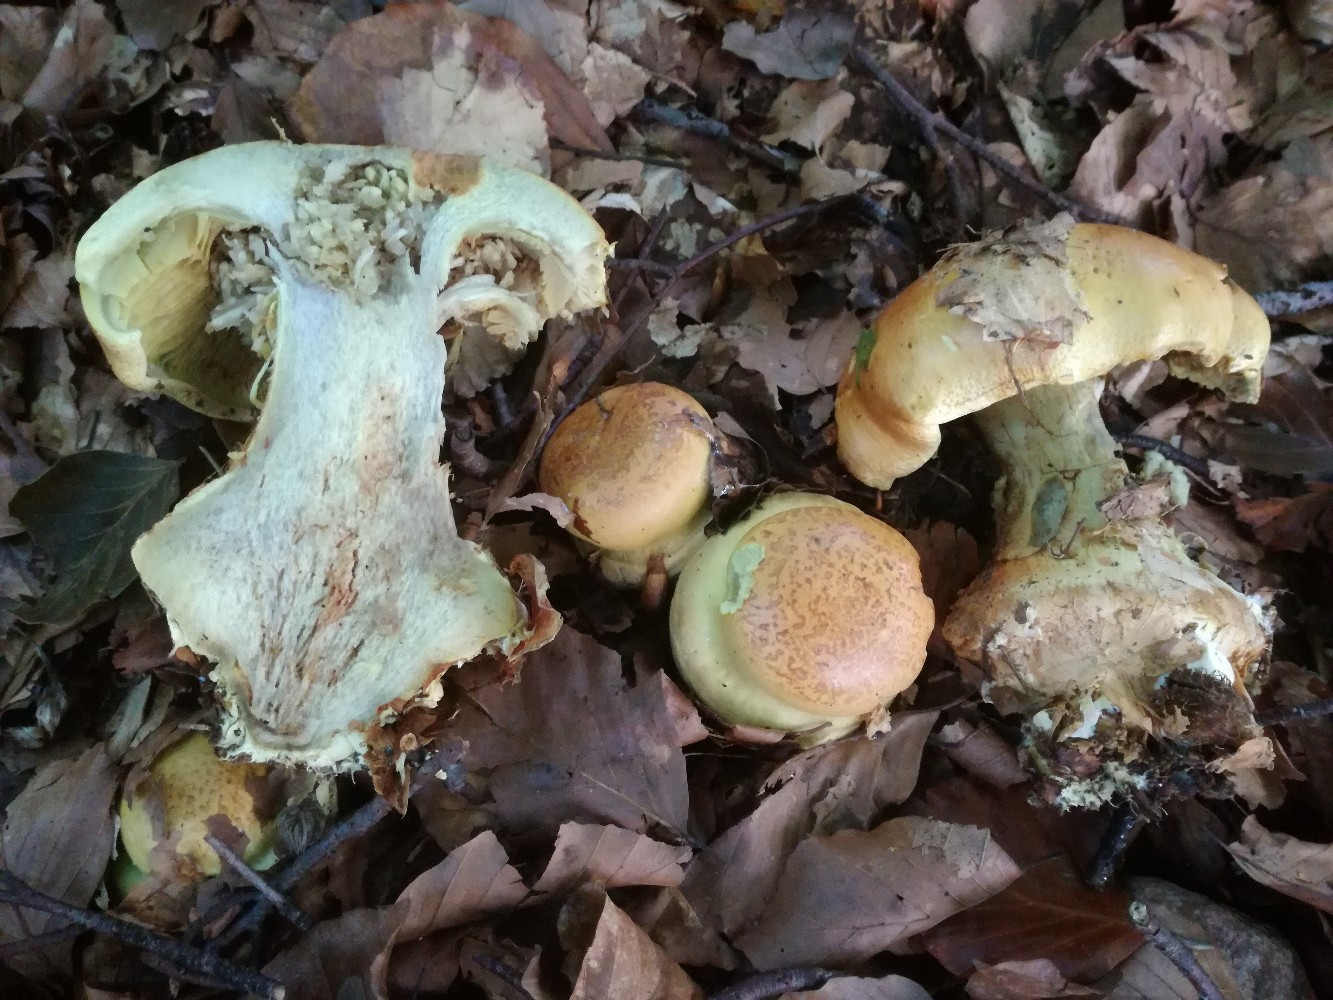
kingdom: Fungi
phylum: Basidiomycota
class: Agaricomycetes
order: Agaricales
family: Cortinariaceae
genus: Calonarius
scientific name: Calonarius elegantissimus
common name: orangegylden slørhat
